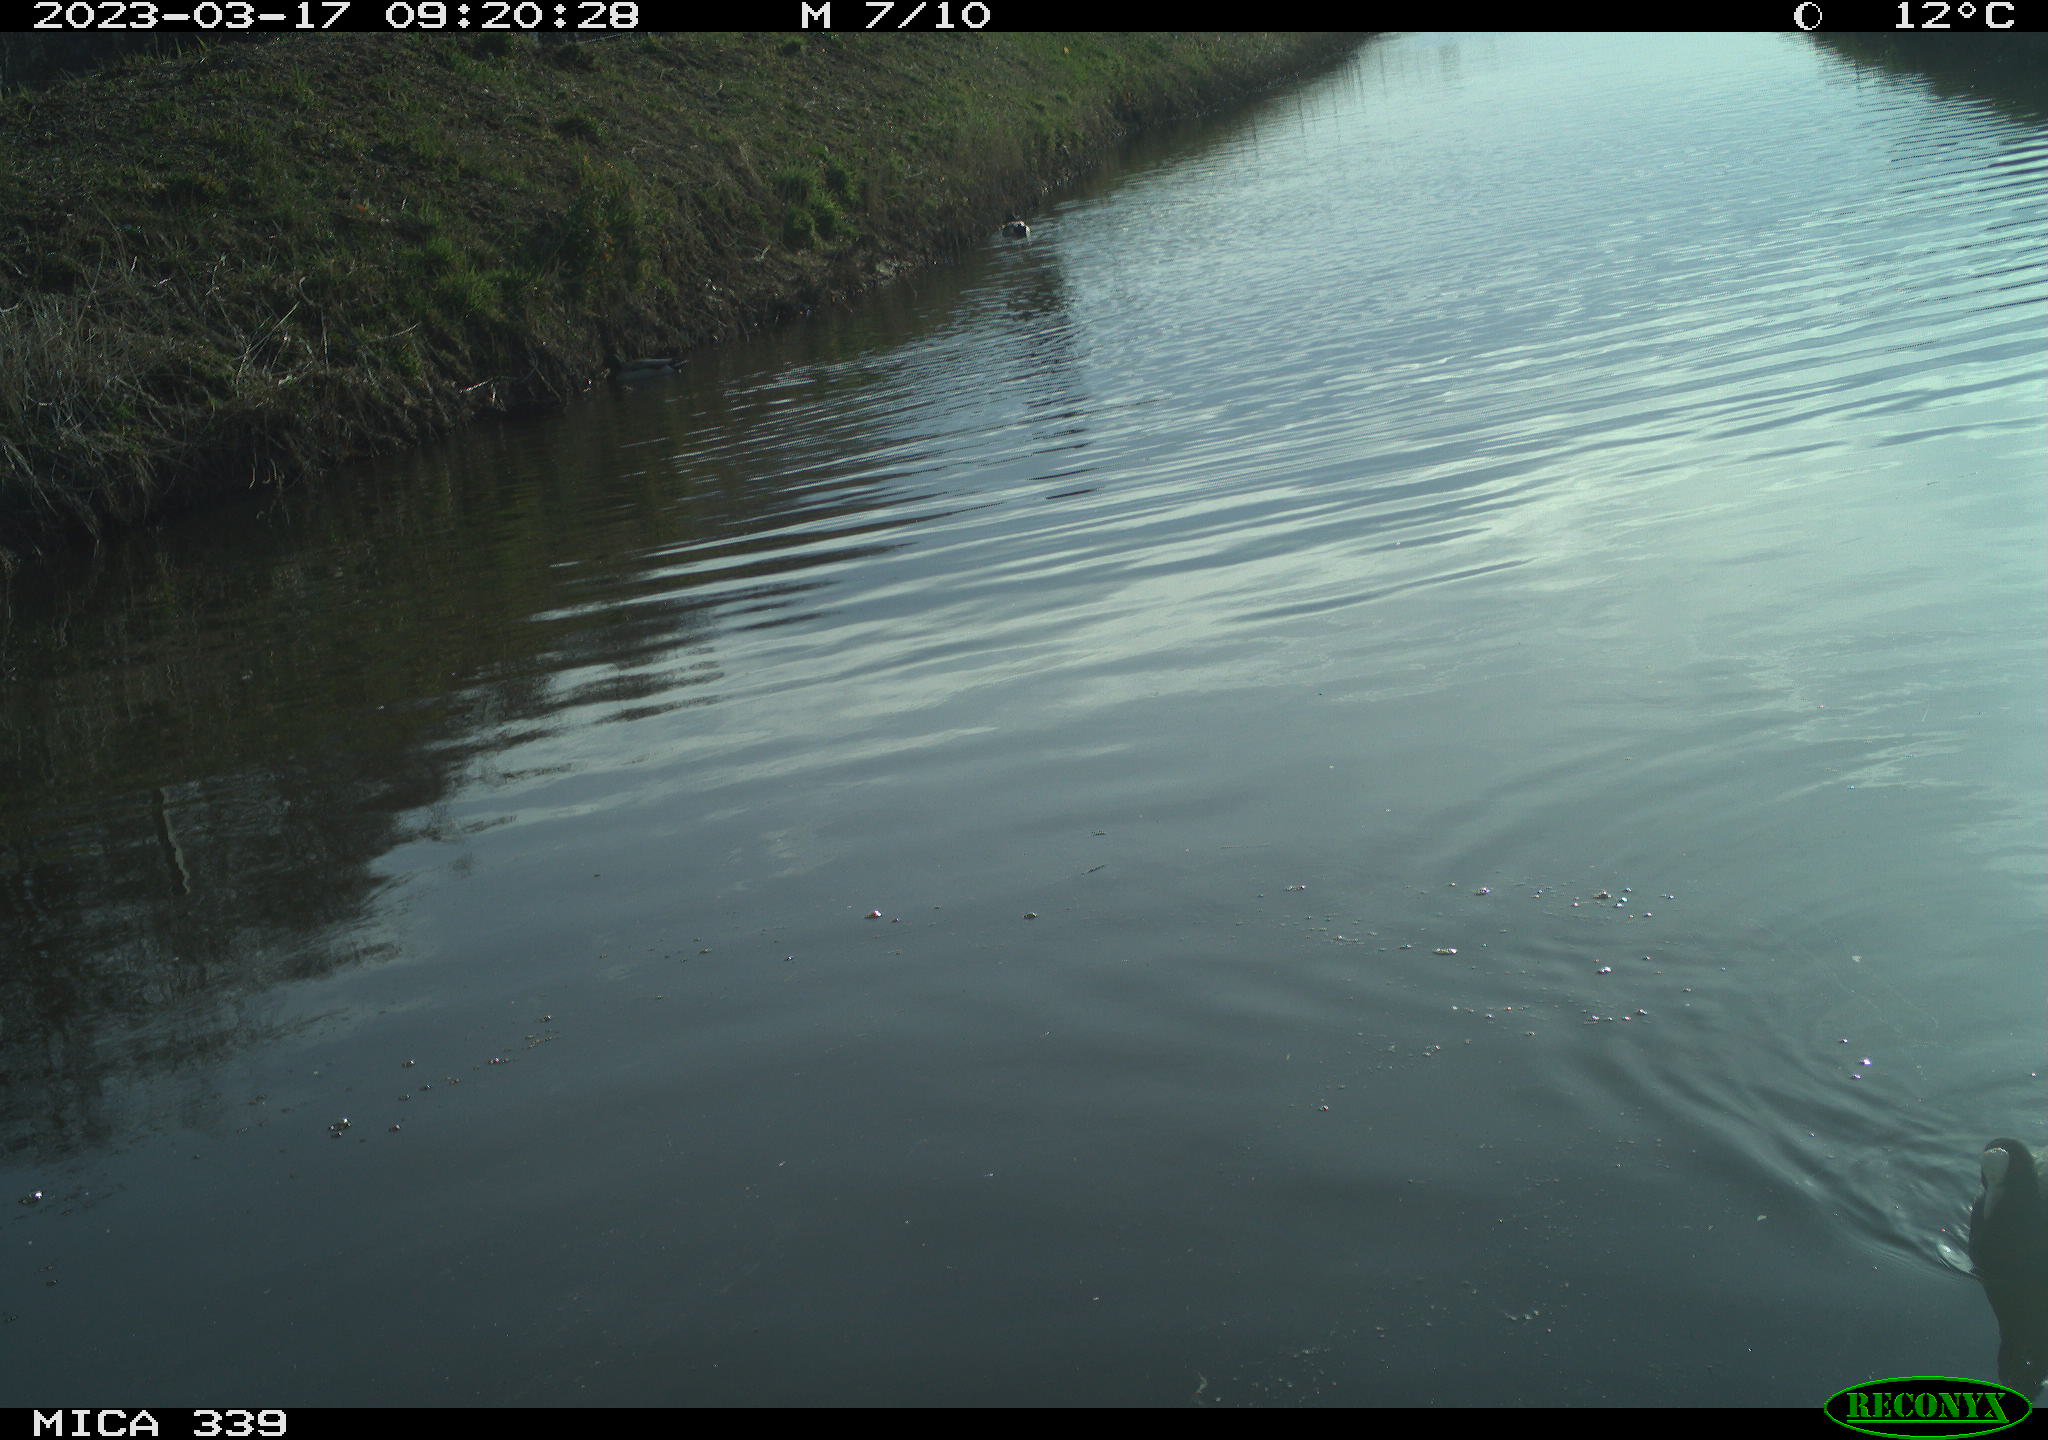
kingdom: Animalia
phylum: Chordata
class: Aves
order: Anseriformes
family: Anatidae
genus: Anas
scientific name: Anas platyrhynchos
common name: Mallard
